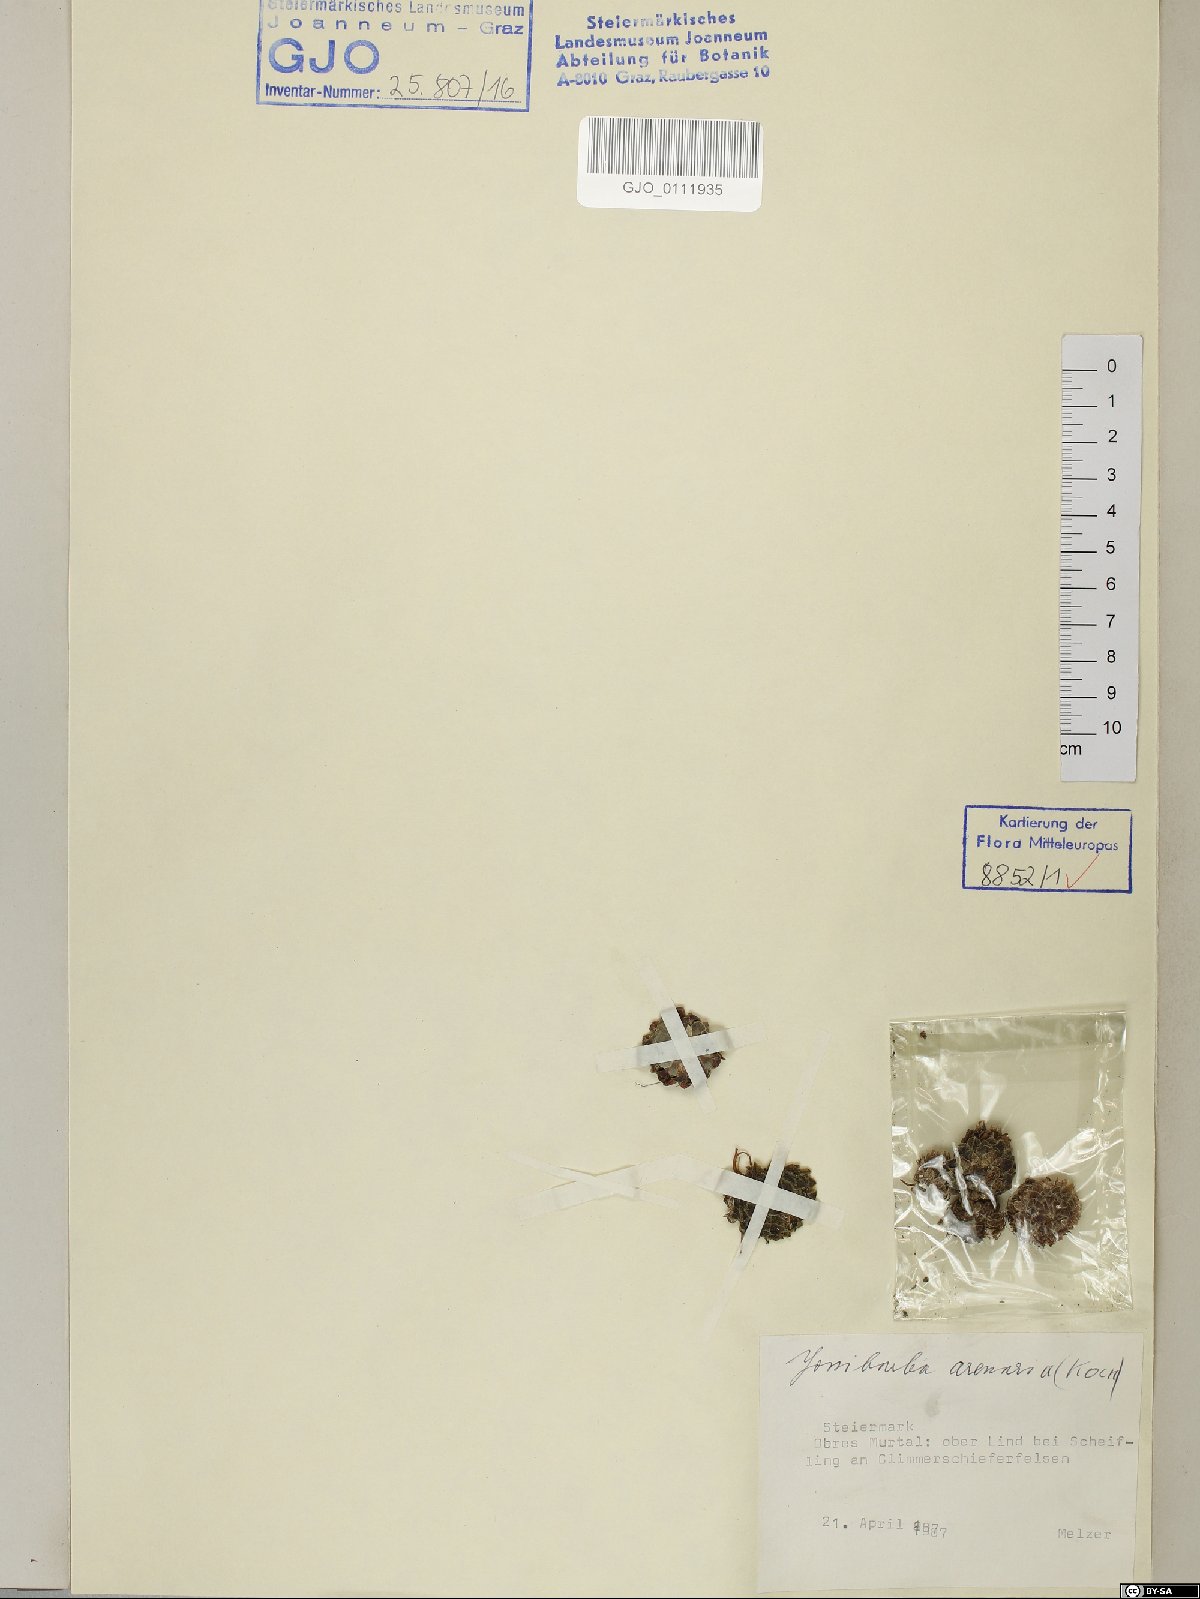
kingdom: Plantae
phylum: Tracheophyta
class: Magnoliopsida
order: Saxifragales
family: Crassulaceae
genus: Sempervivum
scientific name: Sempervivum globiferum
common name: Rolling hen-and-chicks
